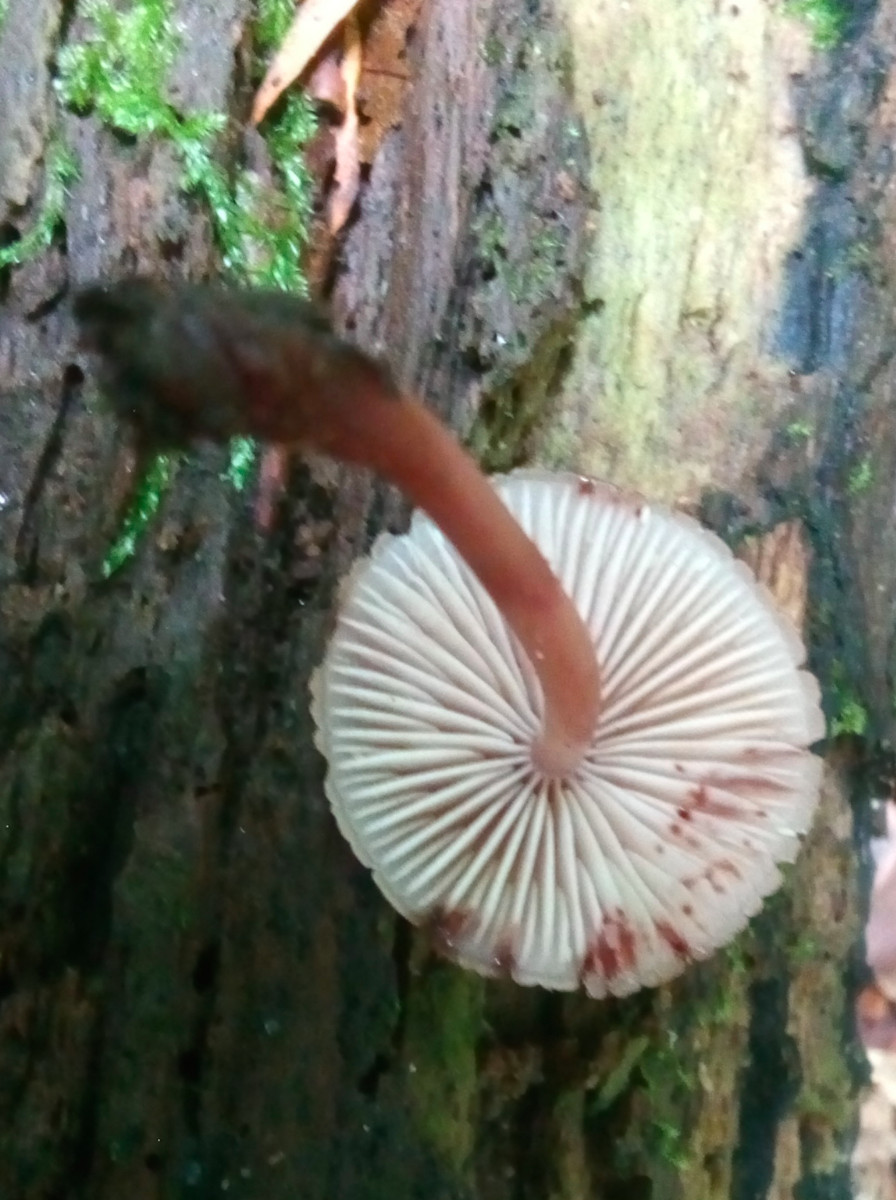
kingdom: Fungi
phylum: Basidiomycota
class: Agaricomycetes
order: Agaricales
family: Mycenaceae
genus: Mycena
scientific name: Mycena haematopus
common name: blødende huesvamp
